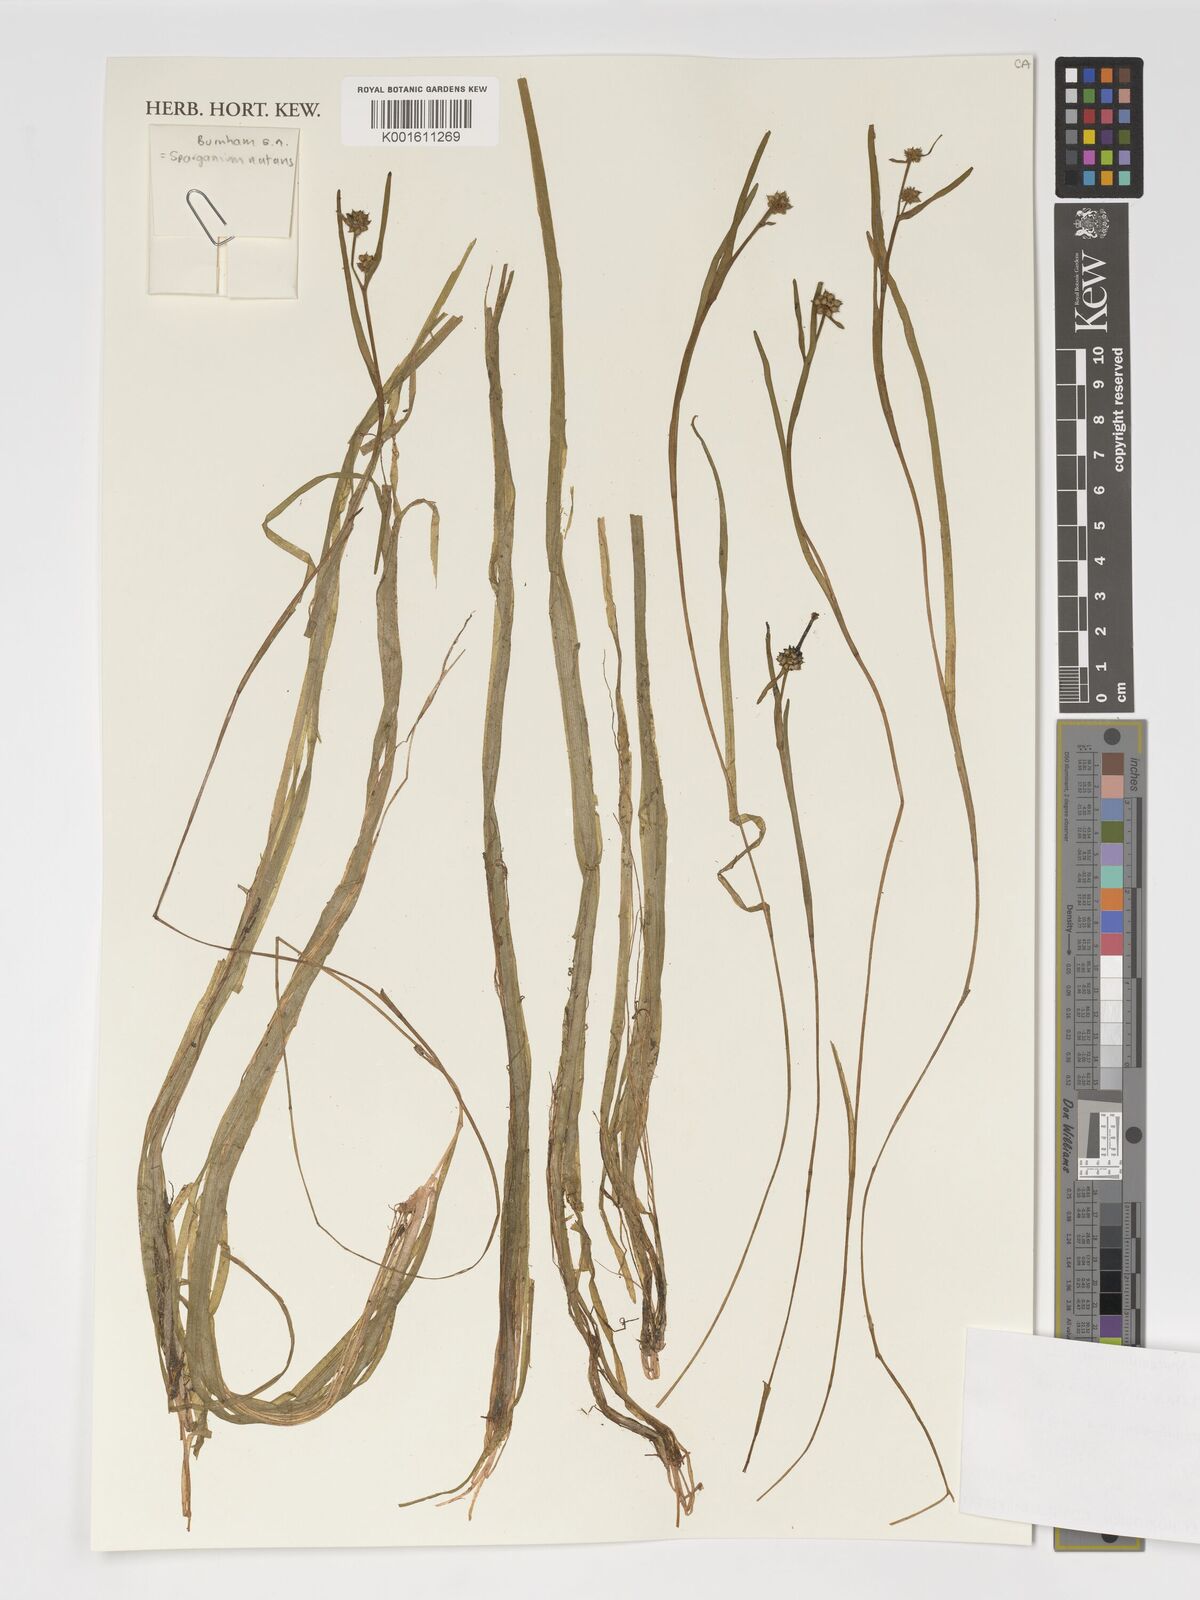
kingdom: Plantae
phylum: Tracheophyta
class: Liliopsida
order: Poales
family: Typhaceae
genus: Sparganium
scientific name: Sparganium natans
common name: Least bur-reed
